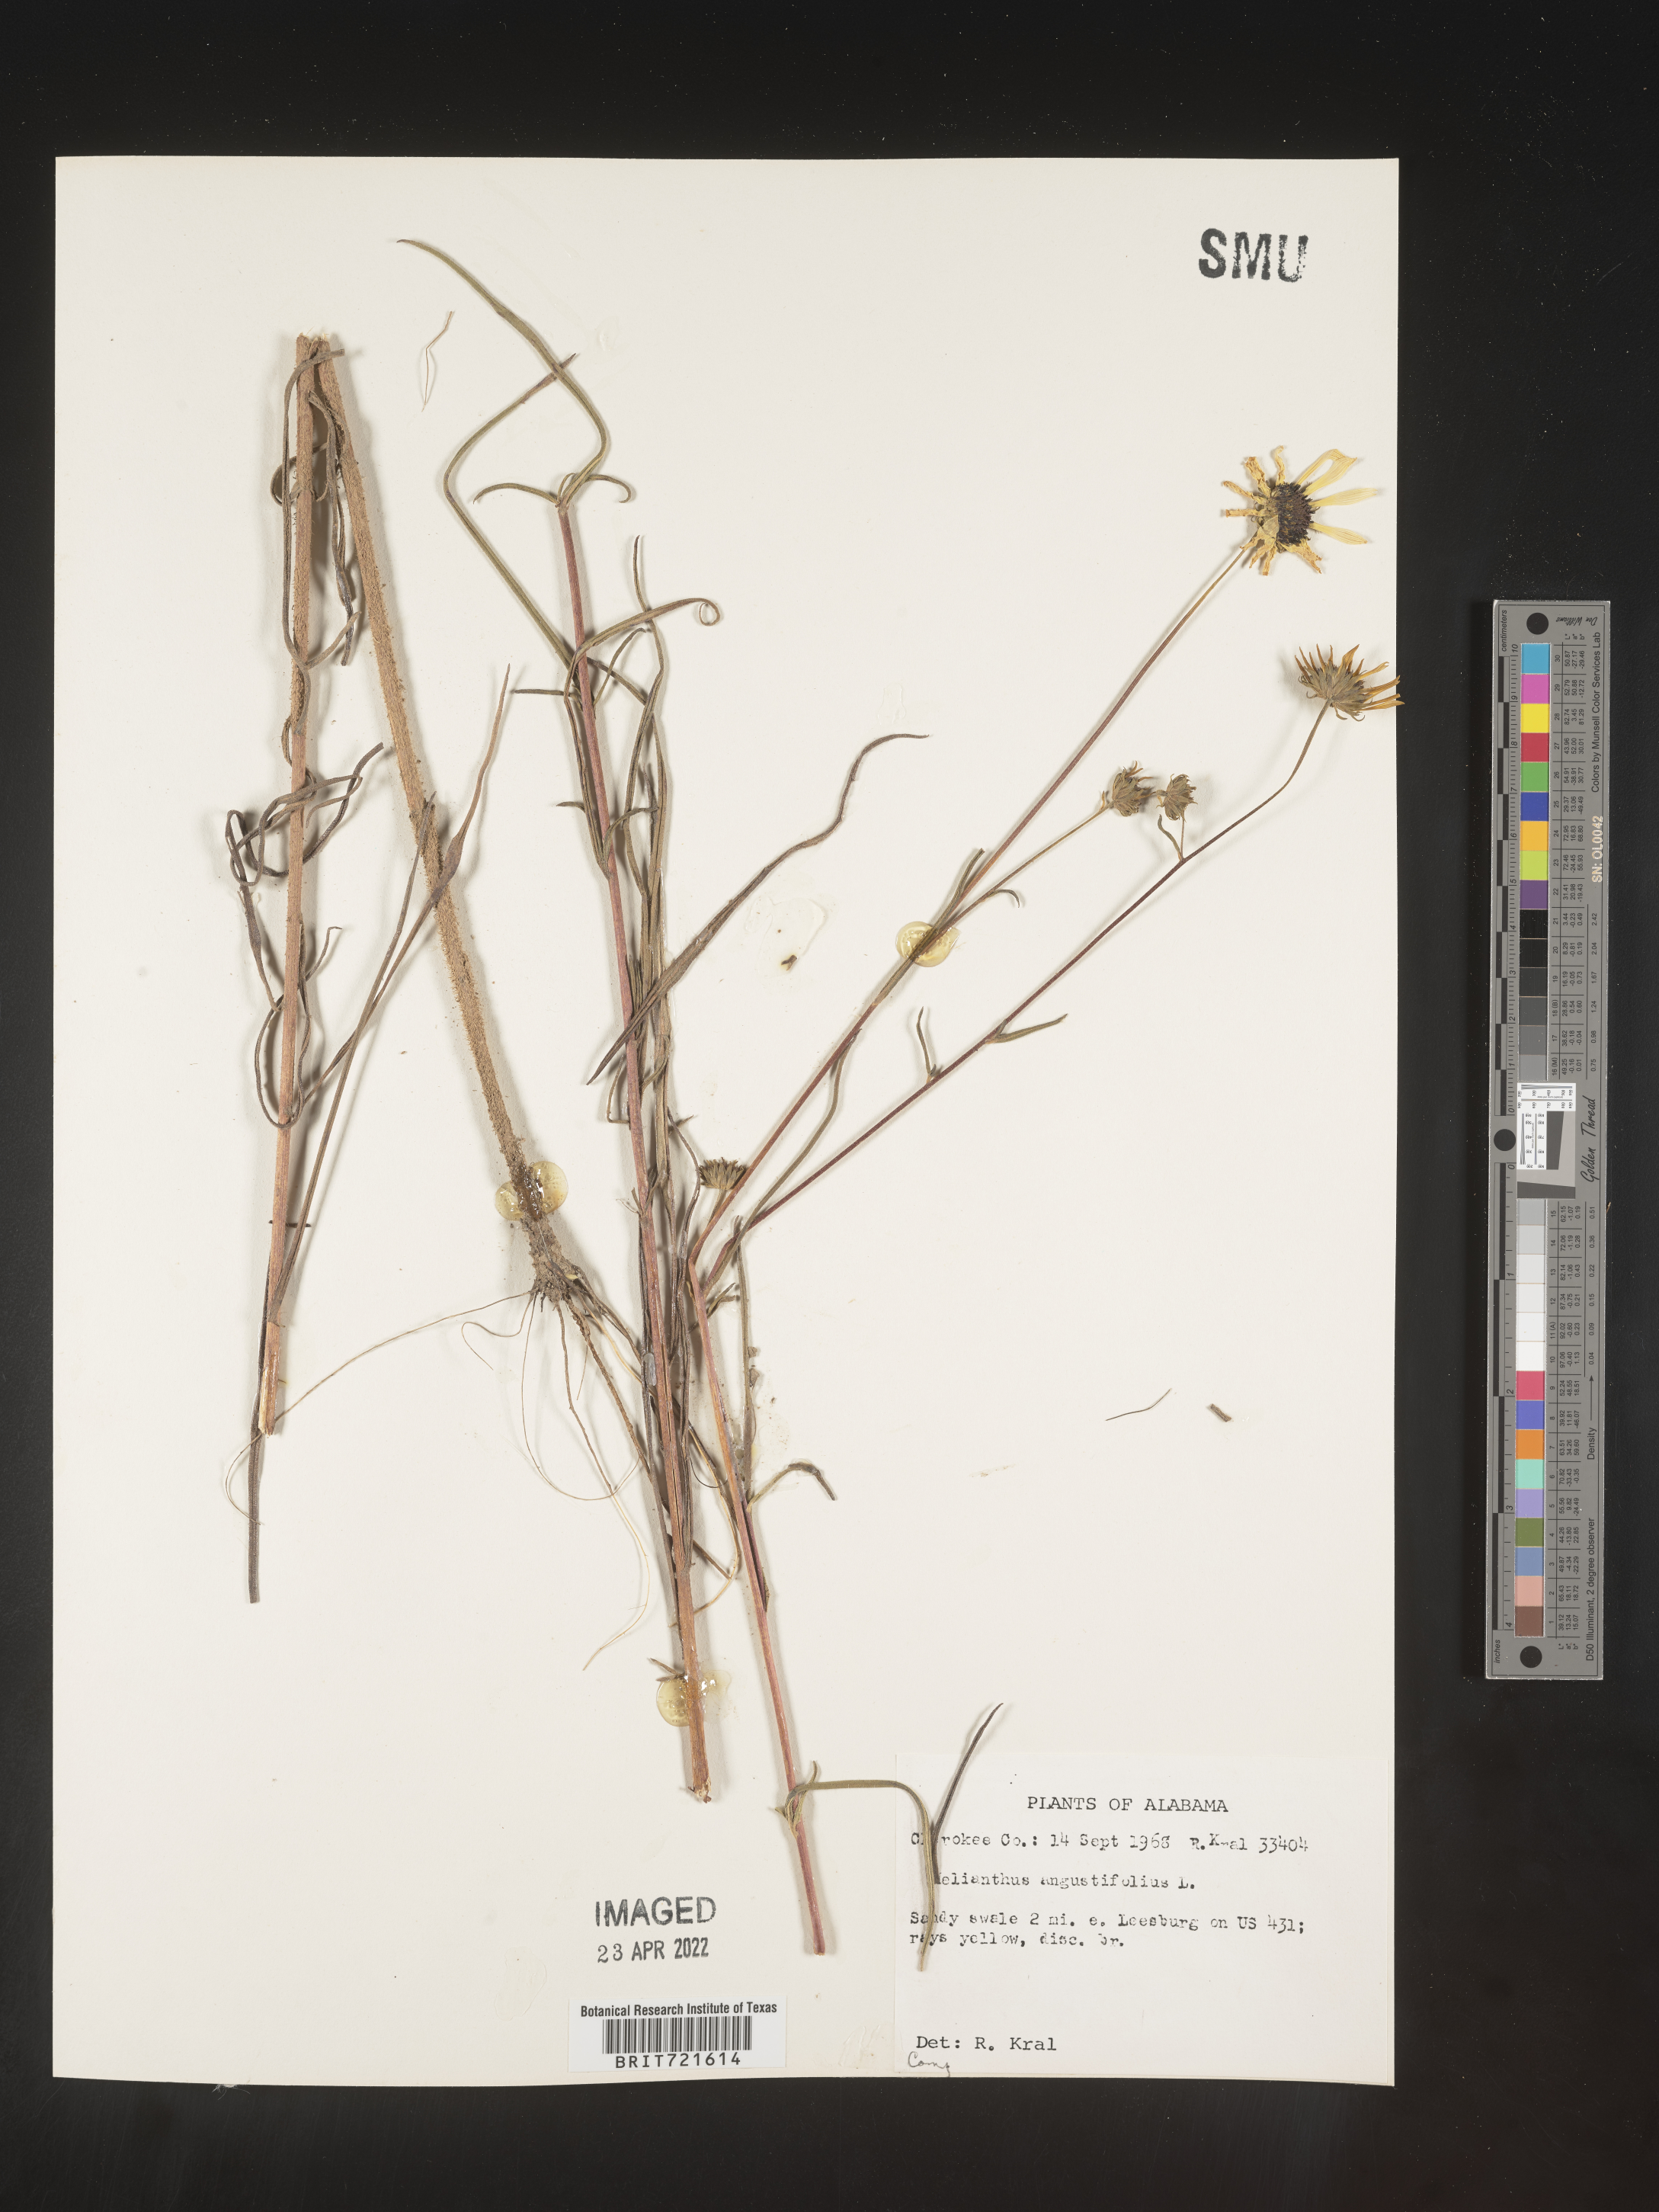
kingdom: Plantae
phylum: Tracheophyta
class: Magnoliopsida
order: Asterales
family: Asteraceae
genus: Helianthus
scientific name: Helianthus angustifolius
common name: Swamp sunflower
